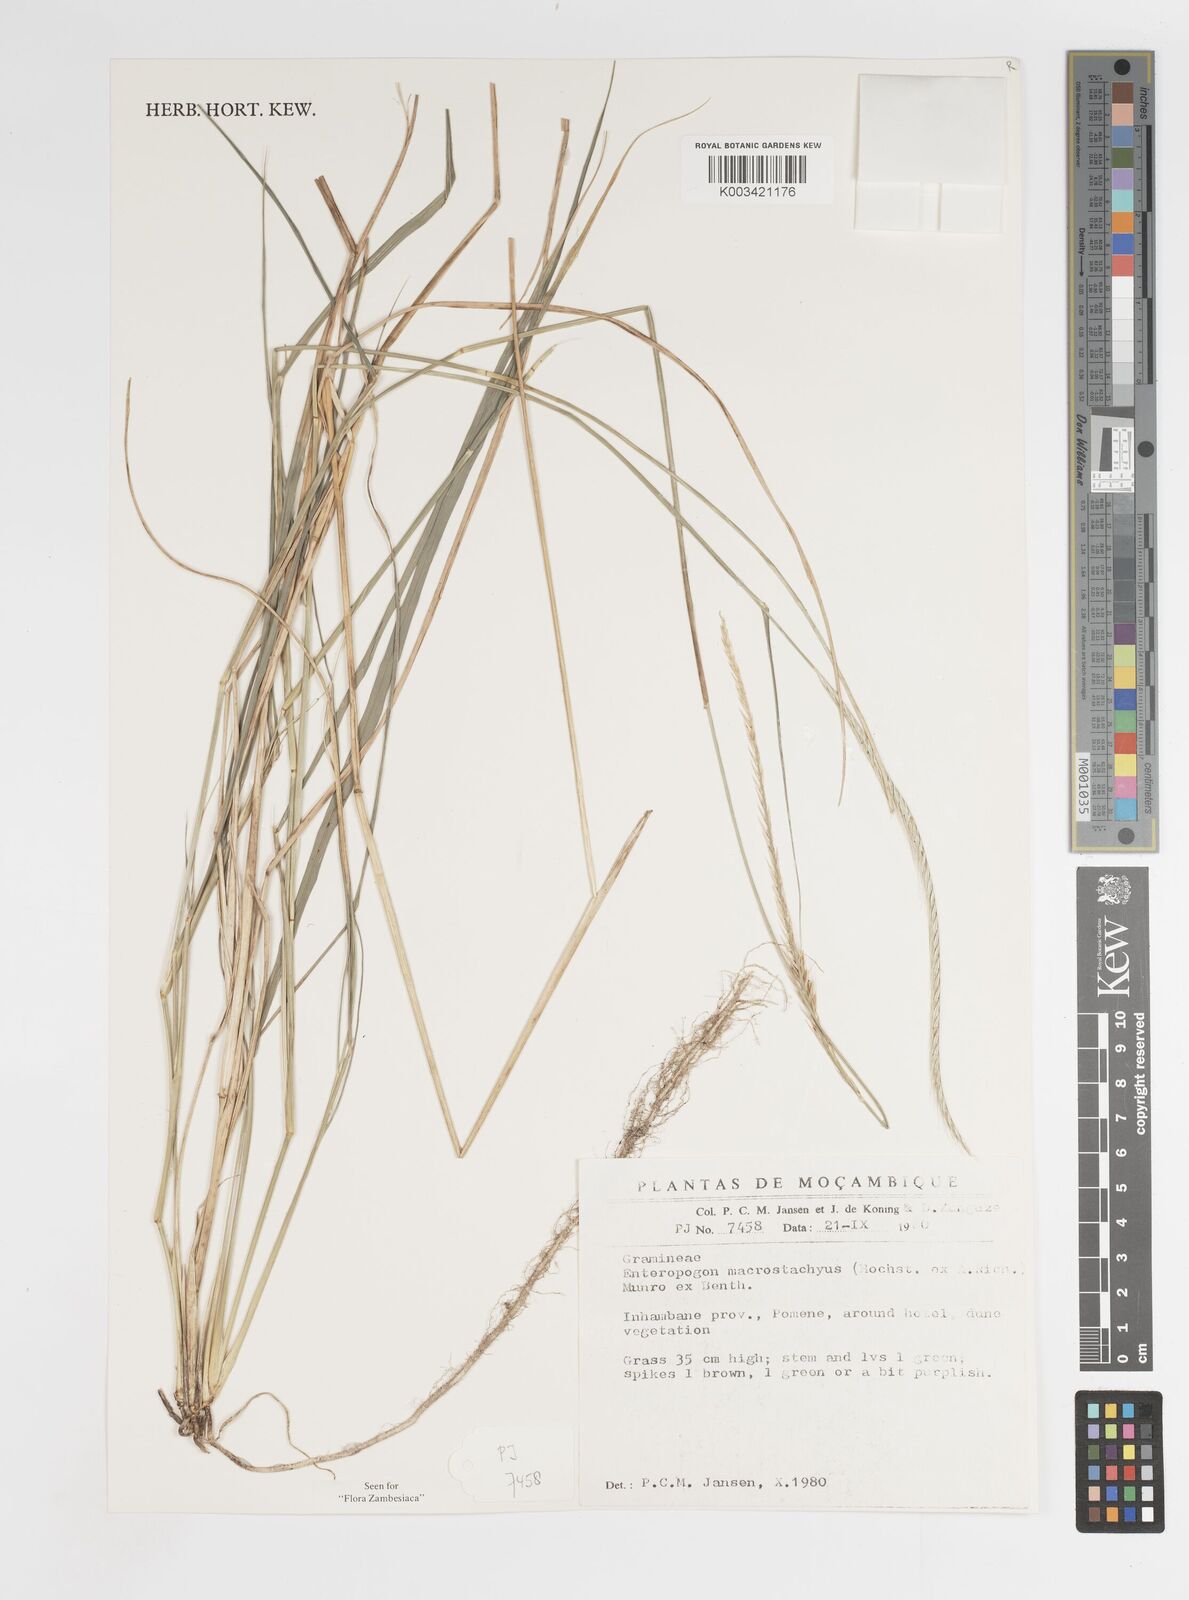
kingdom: Plantae
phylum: Tracheophyta
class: Liliopsida
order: Poales
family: Poaceae
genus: Enteropogon
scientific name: Enteropogon macrostachyus
